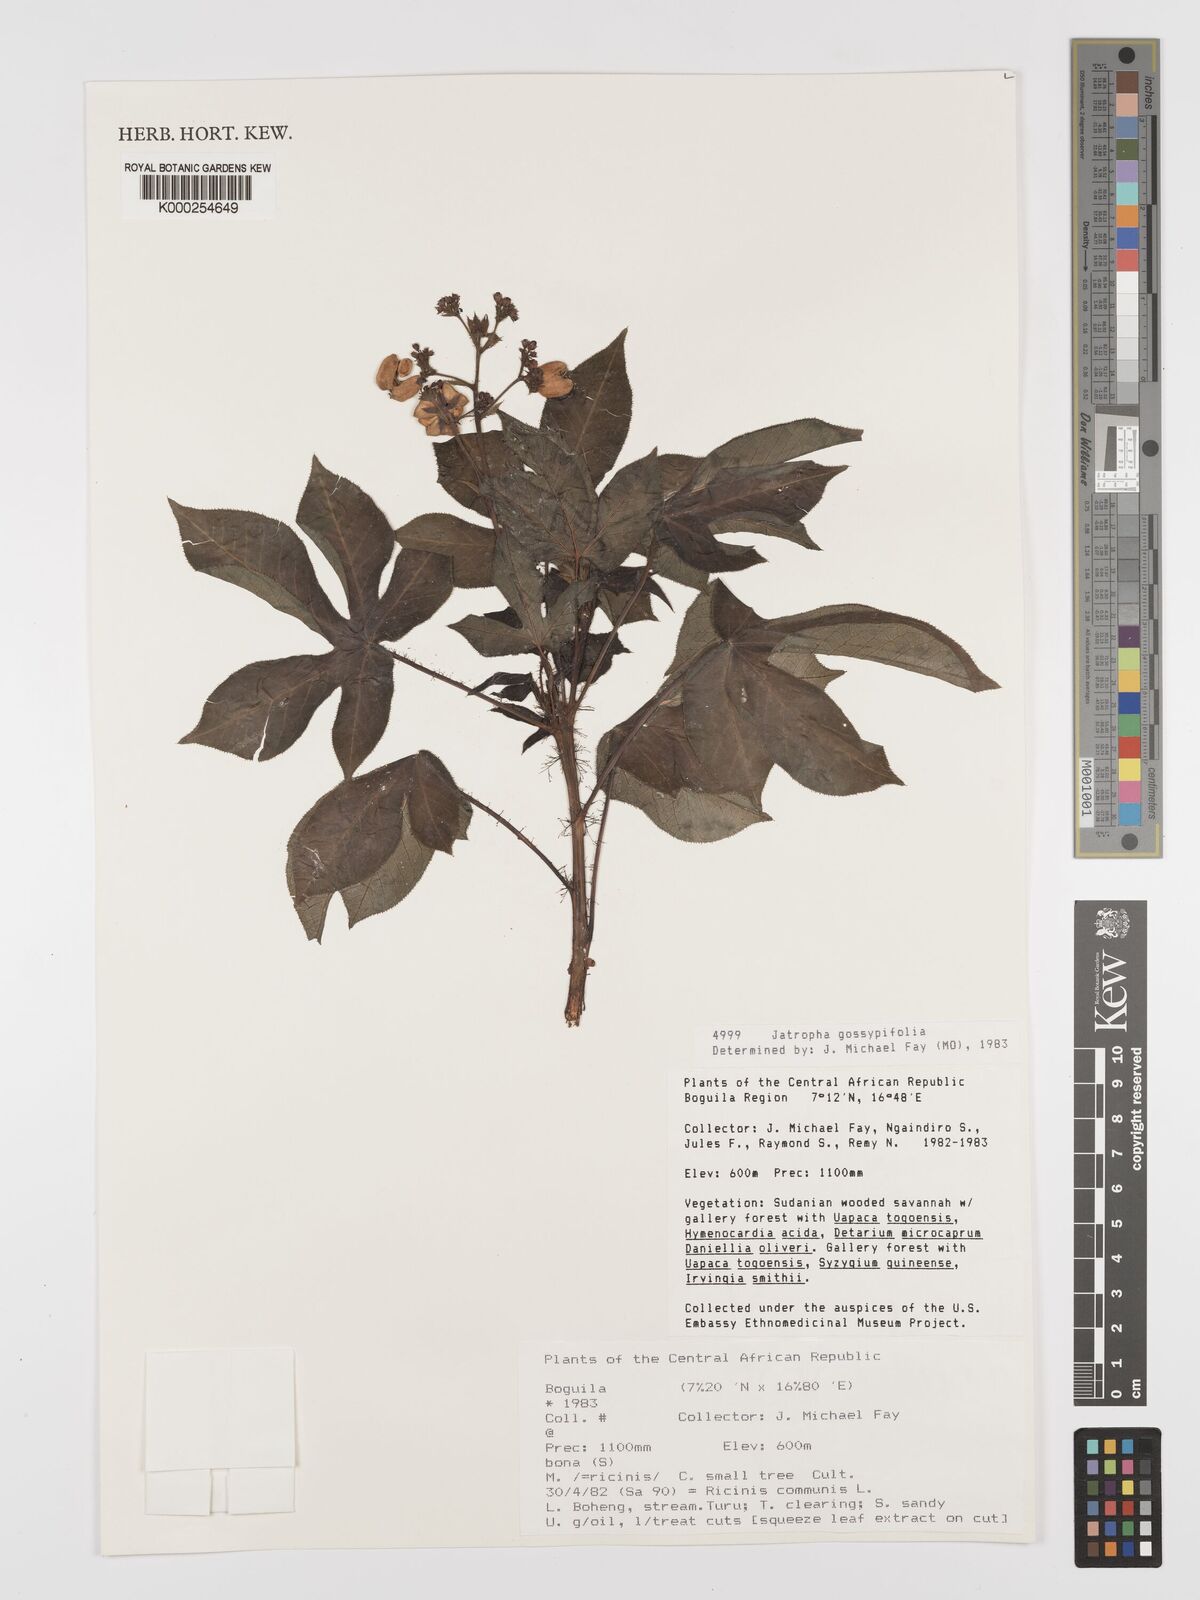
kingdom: Plantae
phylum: Tracheophyta
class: Magnoliopsida
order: Malpighiales
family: Euphorbiaceae
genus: Jatropha
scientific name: Jatropha gossypiifolia
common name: Bellyache bush
